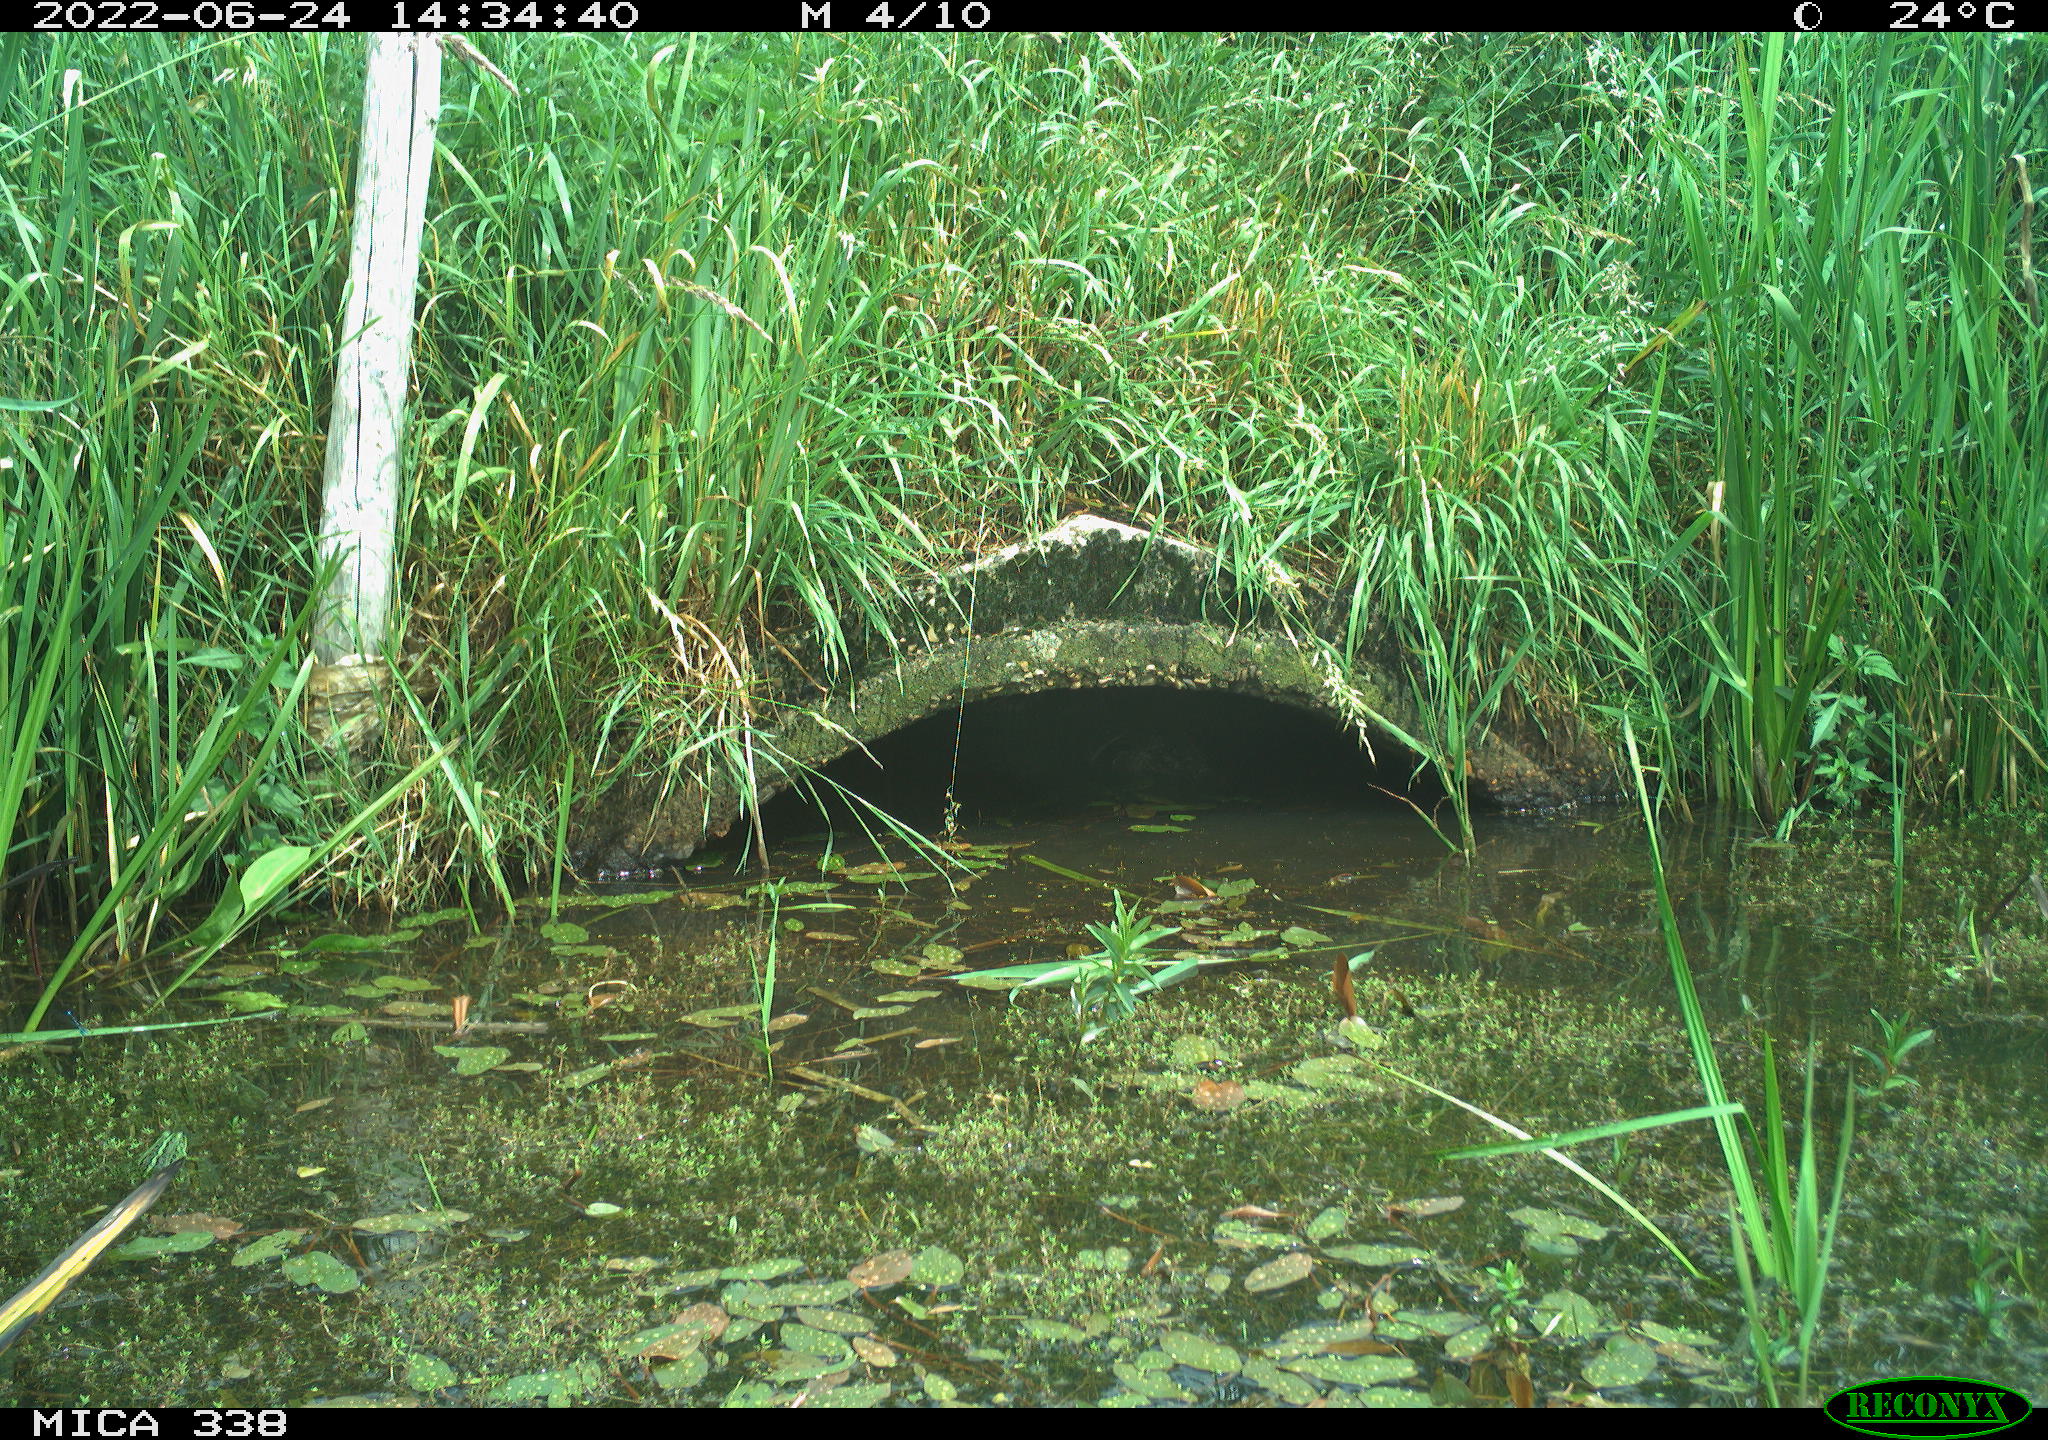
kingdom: Animalia
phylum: Chordata
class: Aves
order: Anseriformes
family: Anatidae
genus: Anas
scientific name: Anas platyrhynchos
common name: Mallard
